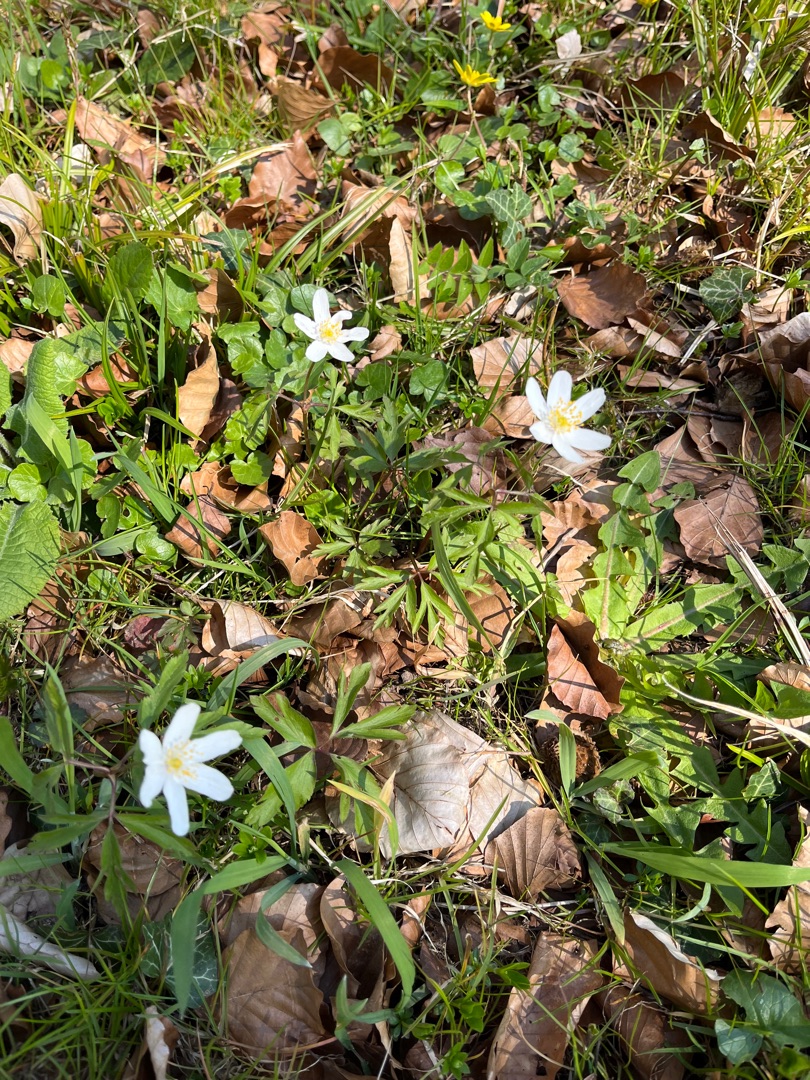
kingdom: Plantae
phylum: Tracheophyta
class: Magnoliopsida
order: Ranunculales
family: Ranunculaceae
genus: Anemone
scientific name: Anemone nemorosa
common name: Hvid anemone
